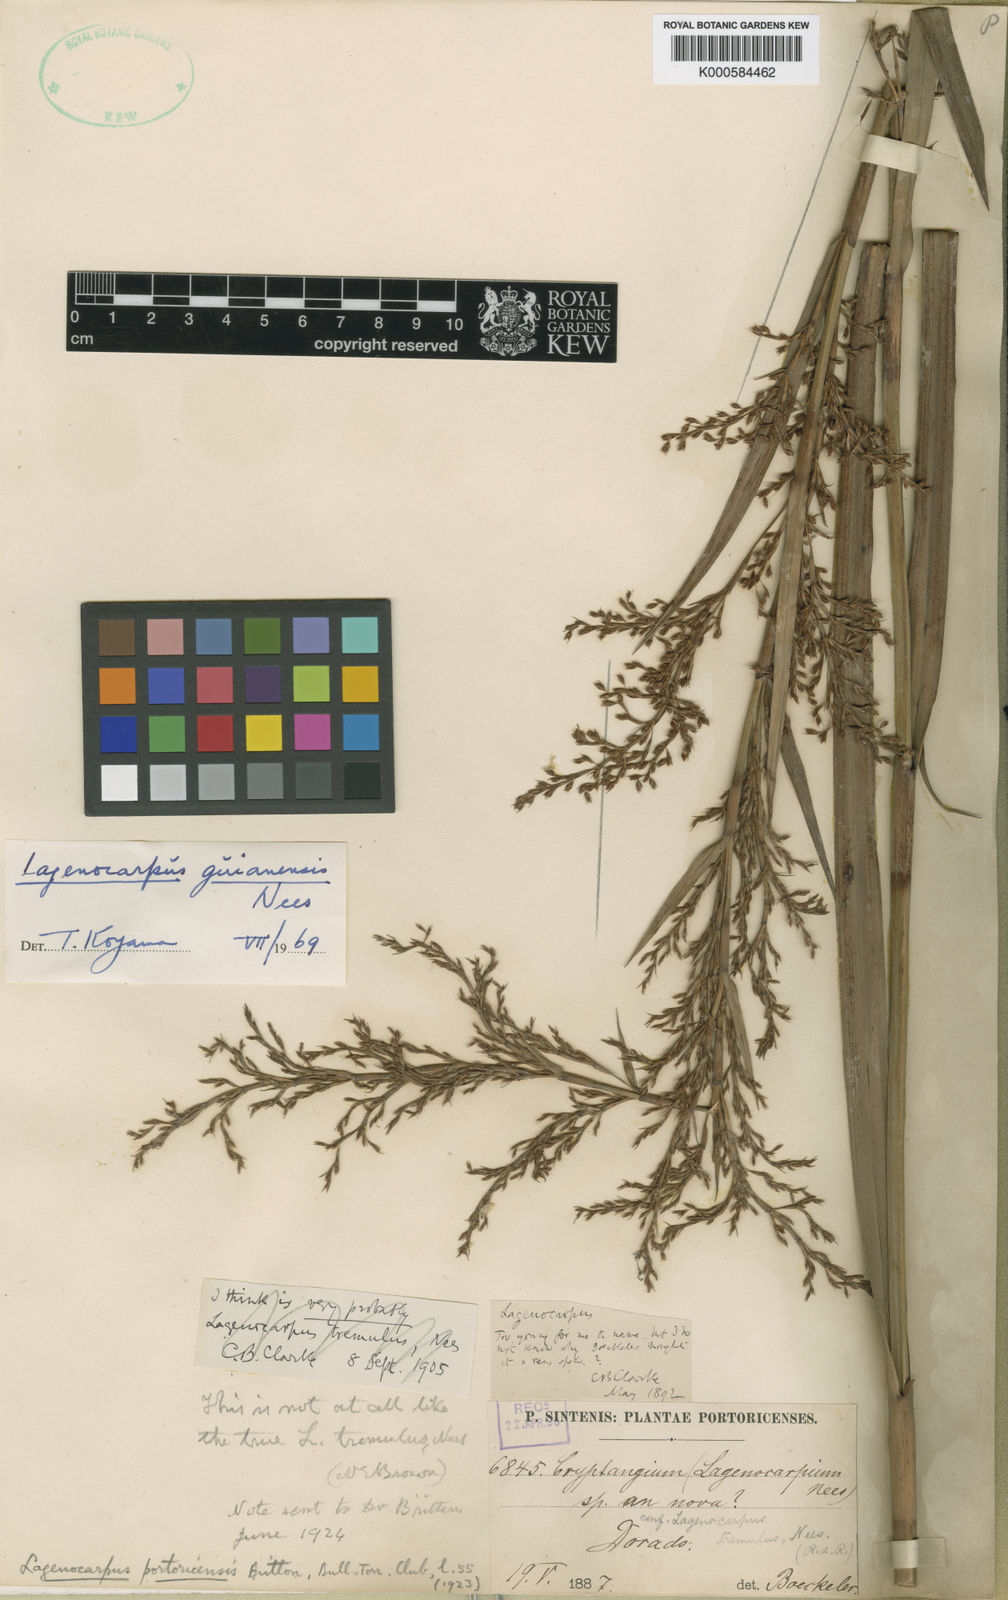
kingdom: Plantae
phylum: Tracheophyta
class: Liliopsida
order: Poales
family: Cyperaceae
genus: Lagenocarpus
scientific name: Lagenocarpus guianensis
